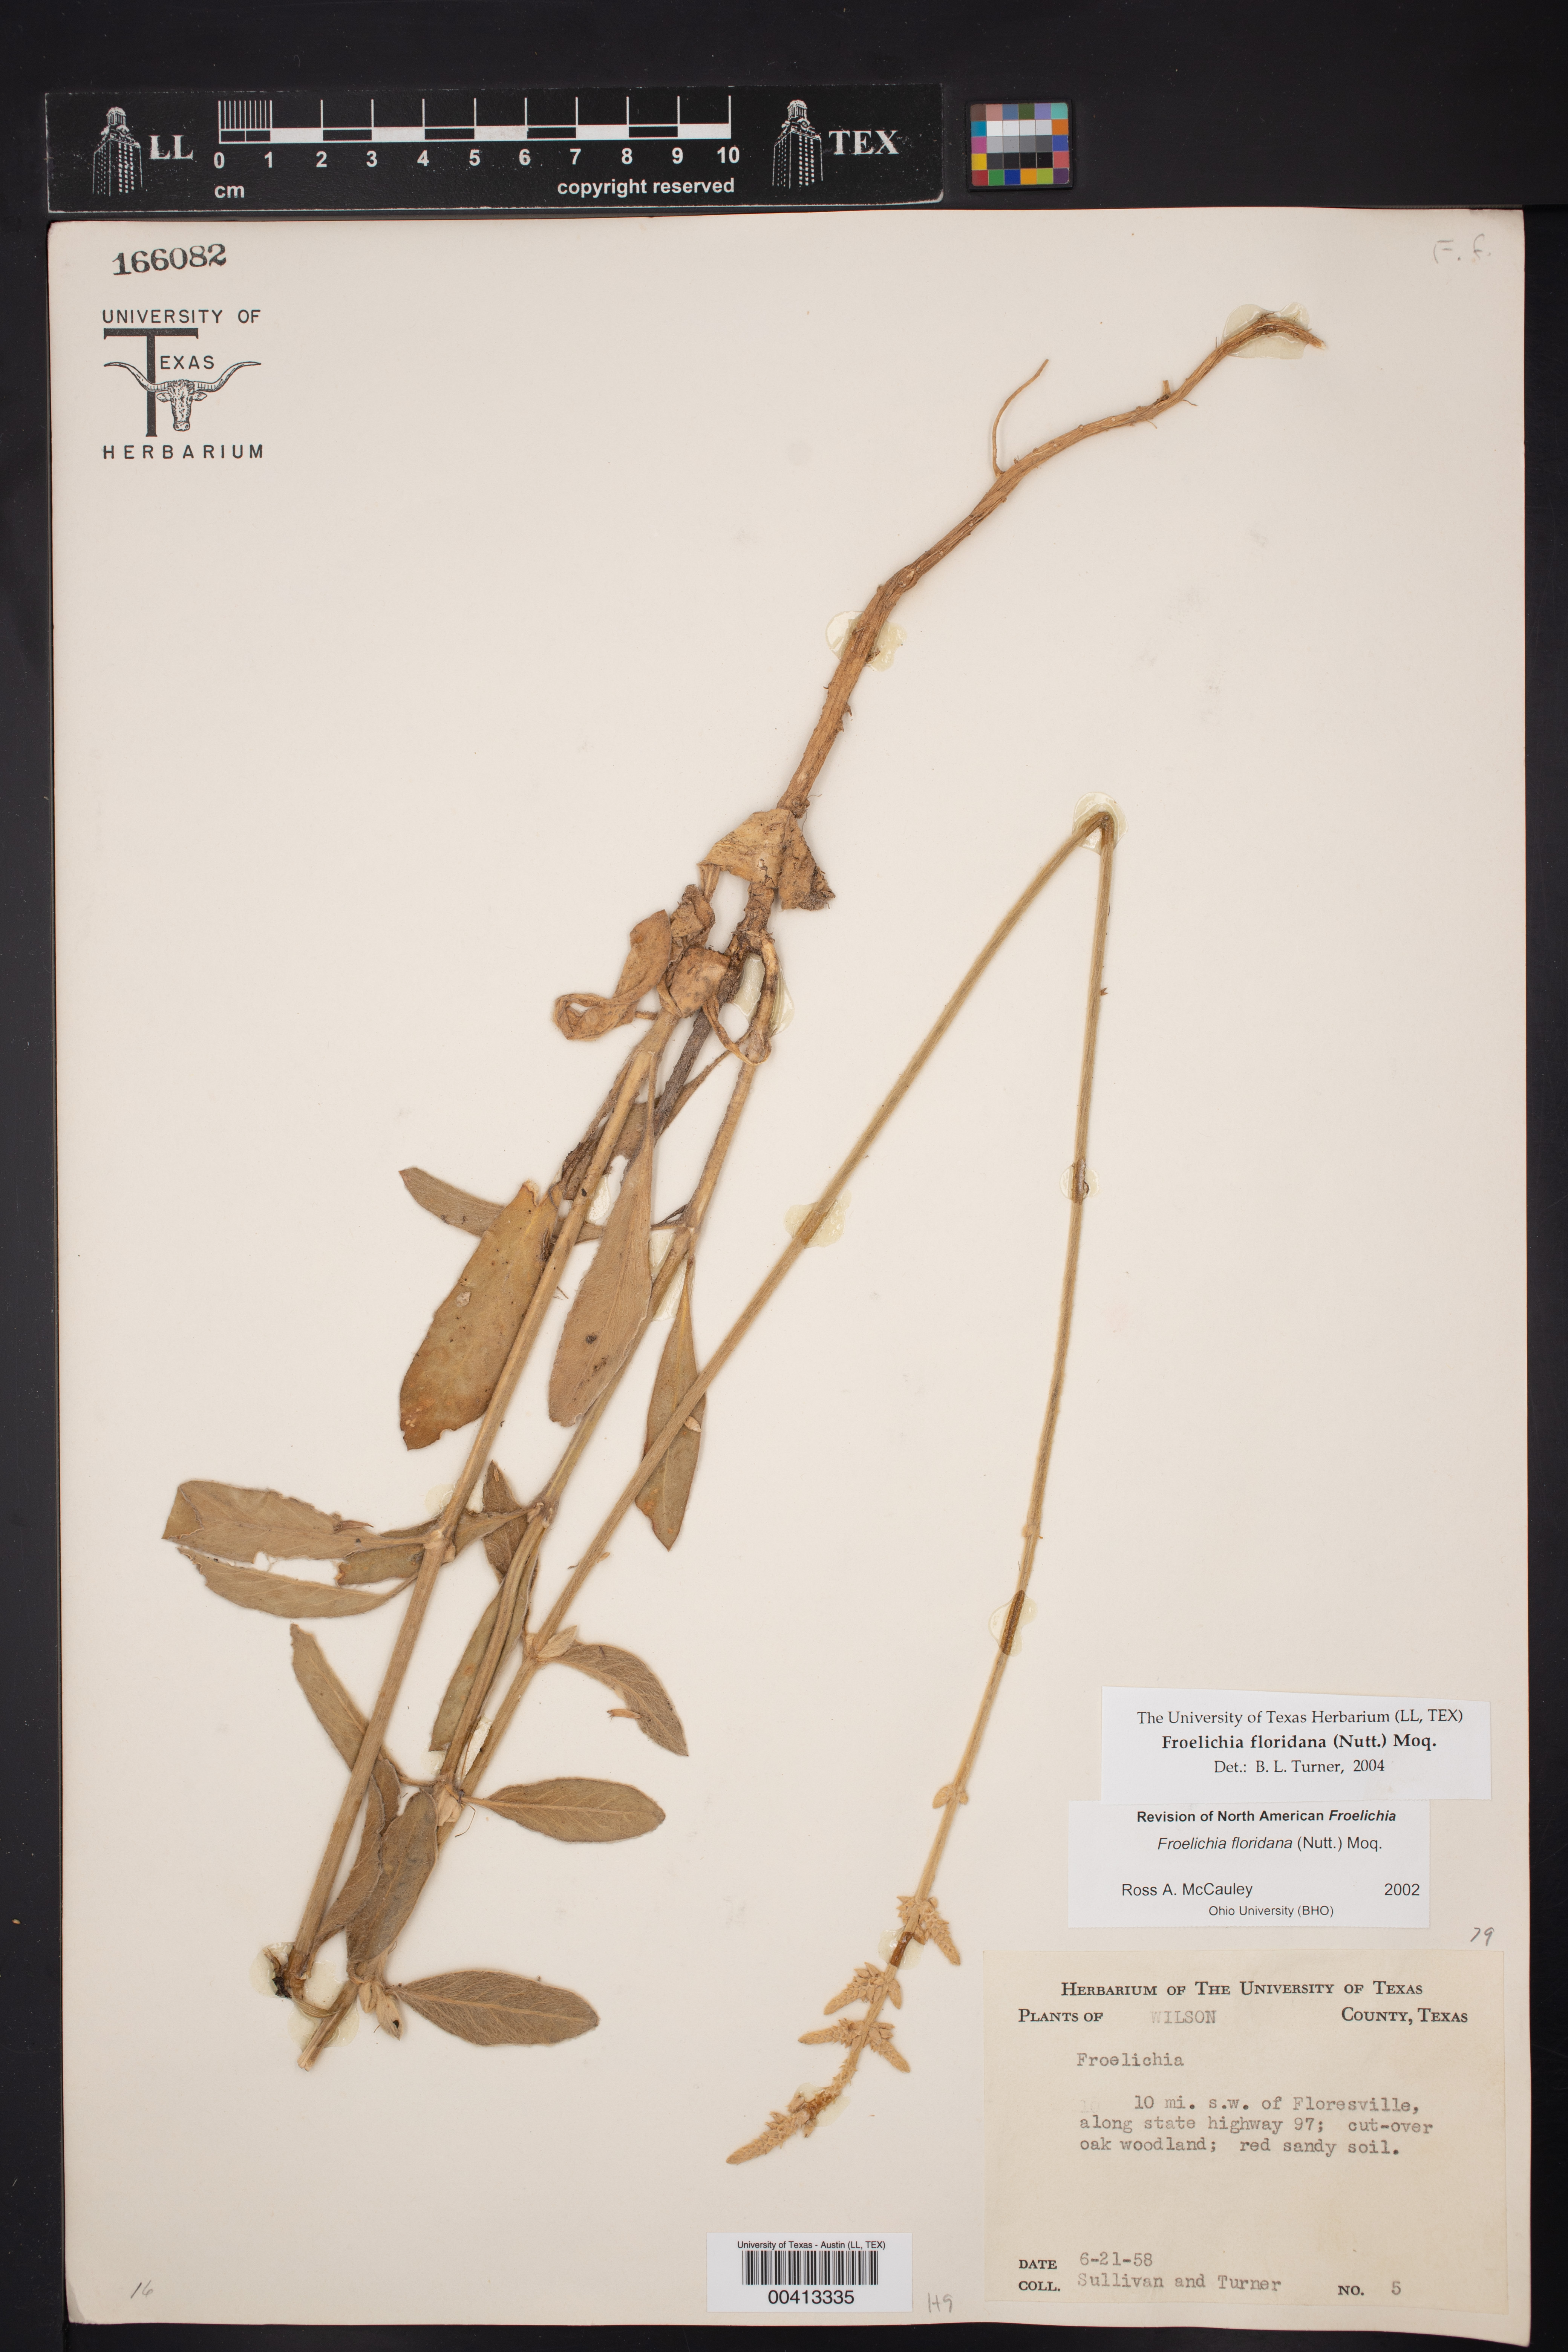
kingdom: Plantae
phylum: Tracheophyta
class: Magnoliopsida
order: Caryophyllales
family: Amaranthaceae
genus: Froelichia
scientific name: Froelichia floridana
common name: Florida snake-cotton
